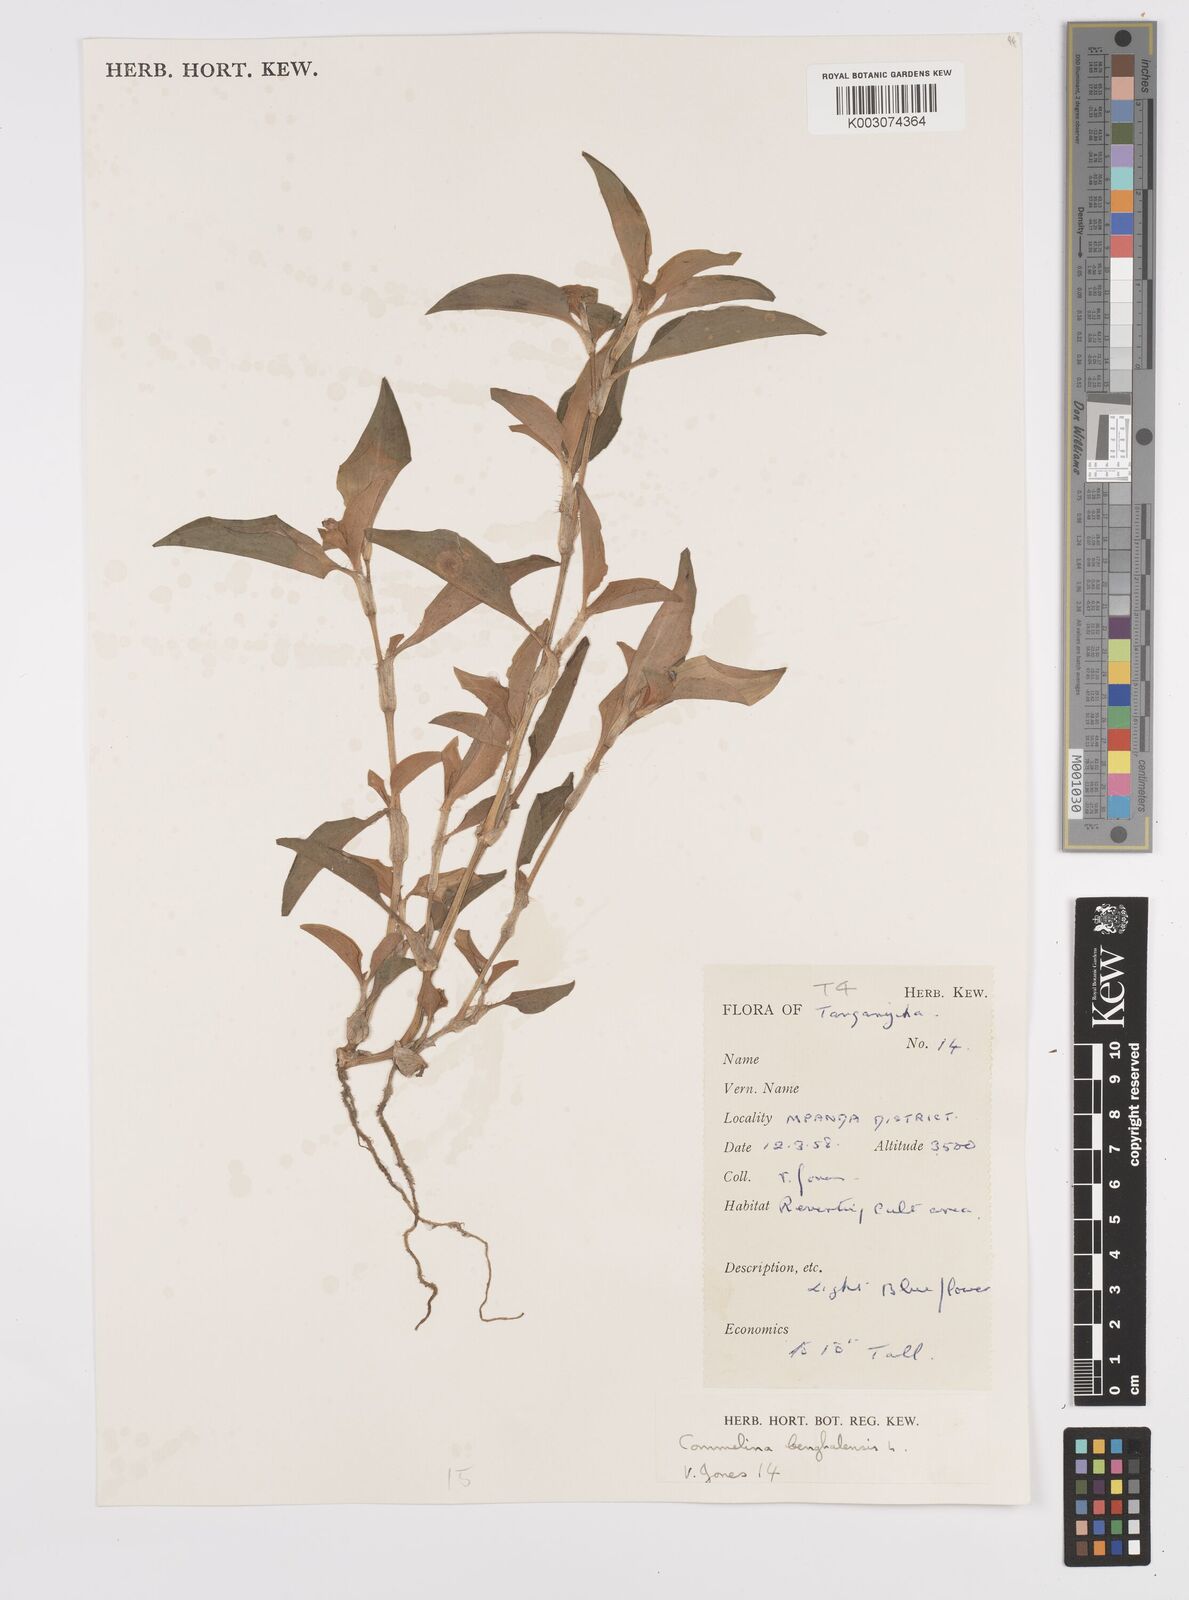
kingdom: Plantae
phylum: Tracheophyta
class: Liliopsida
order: Commelinales
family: Commelinaceae
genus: Commelina
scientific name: Commelina benghalensis
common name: Jio
